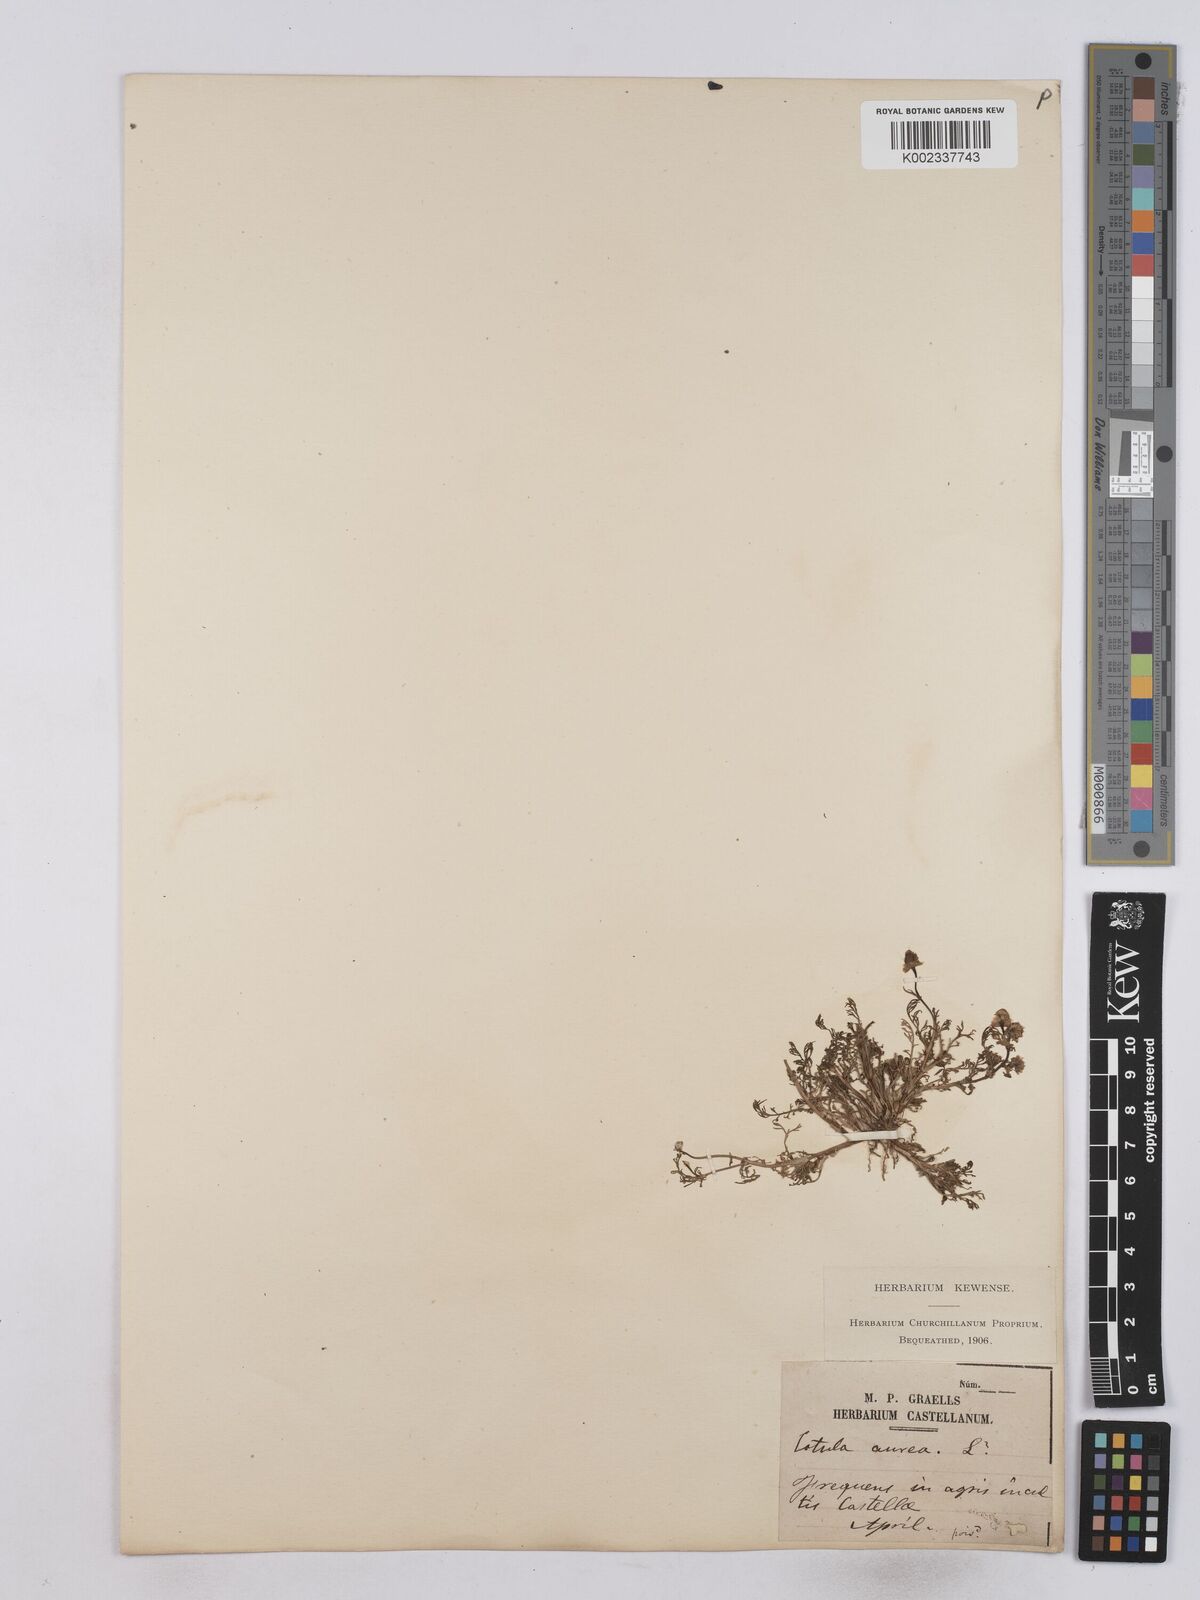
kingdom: Plantae
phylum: Tracheophyta
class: Magnoliopsida
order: Asterales
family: Asteraceae
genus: Matricaria
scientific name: Matricaria aurea
